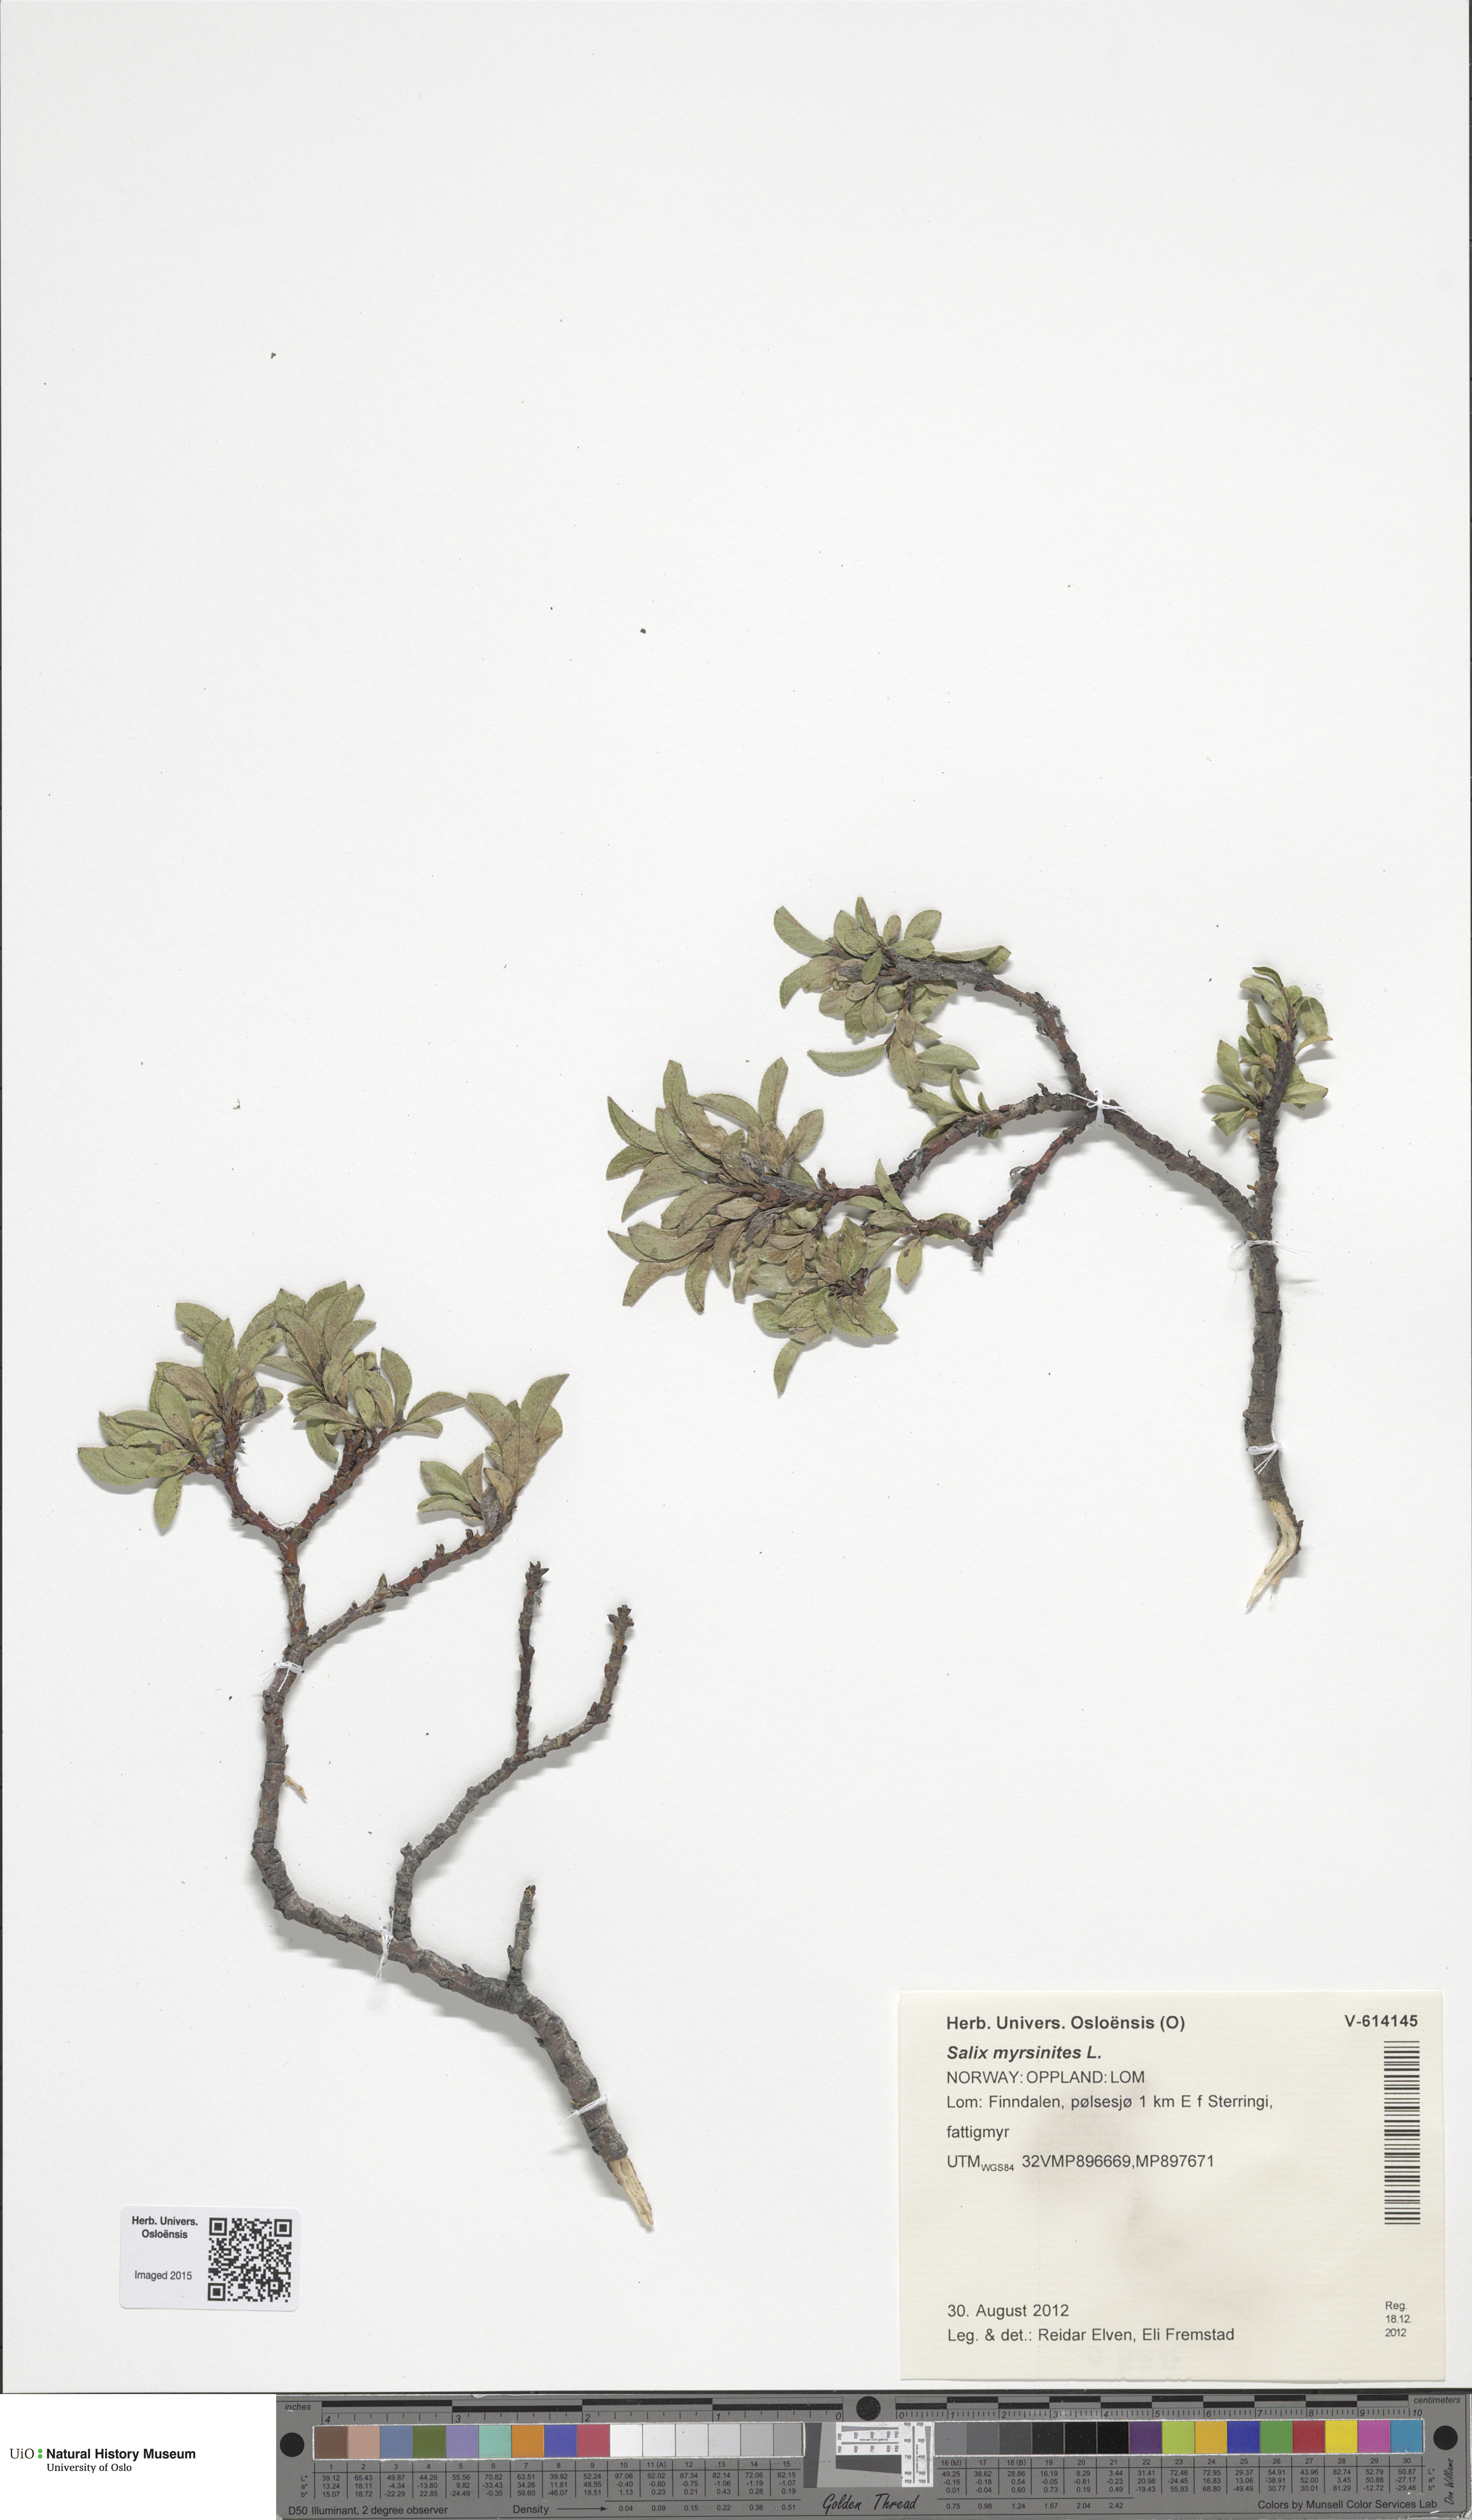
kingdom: Plantae
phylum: Tracheophyta
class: Magnoliopsida
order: Malpighiales
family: Salicaceae
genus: Salix
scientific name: Salix myrsinites
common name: Myrtle willow
